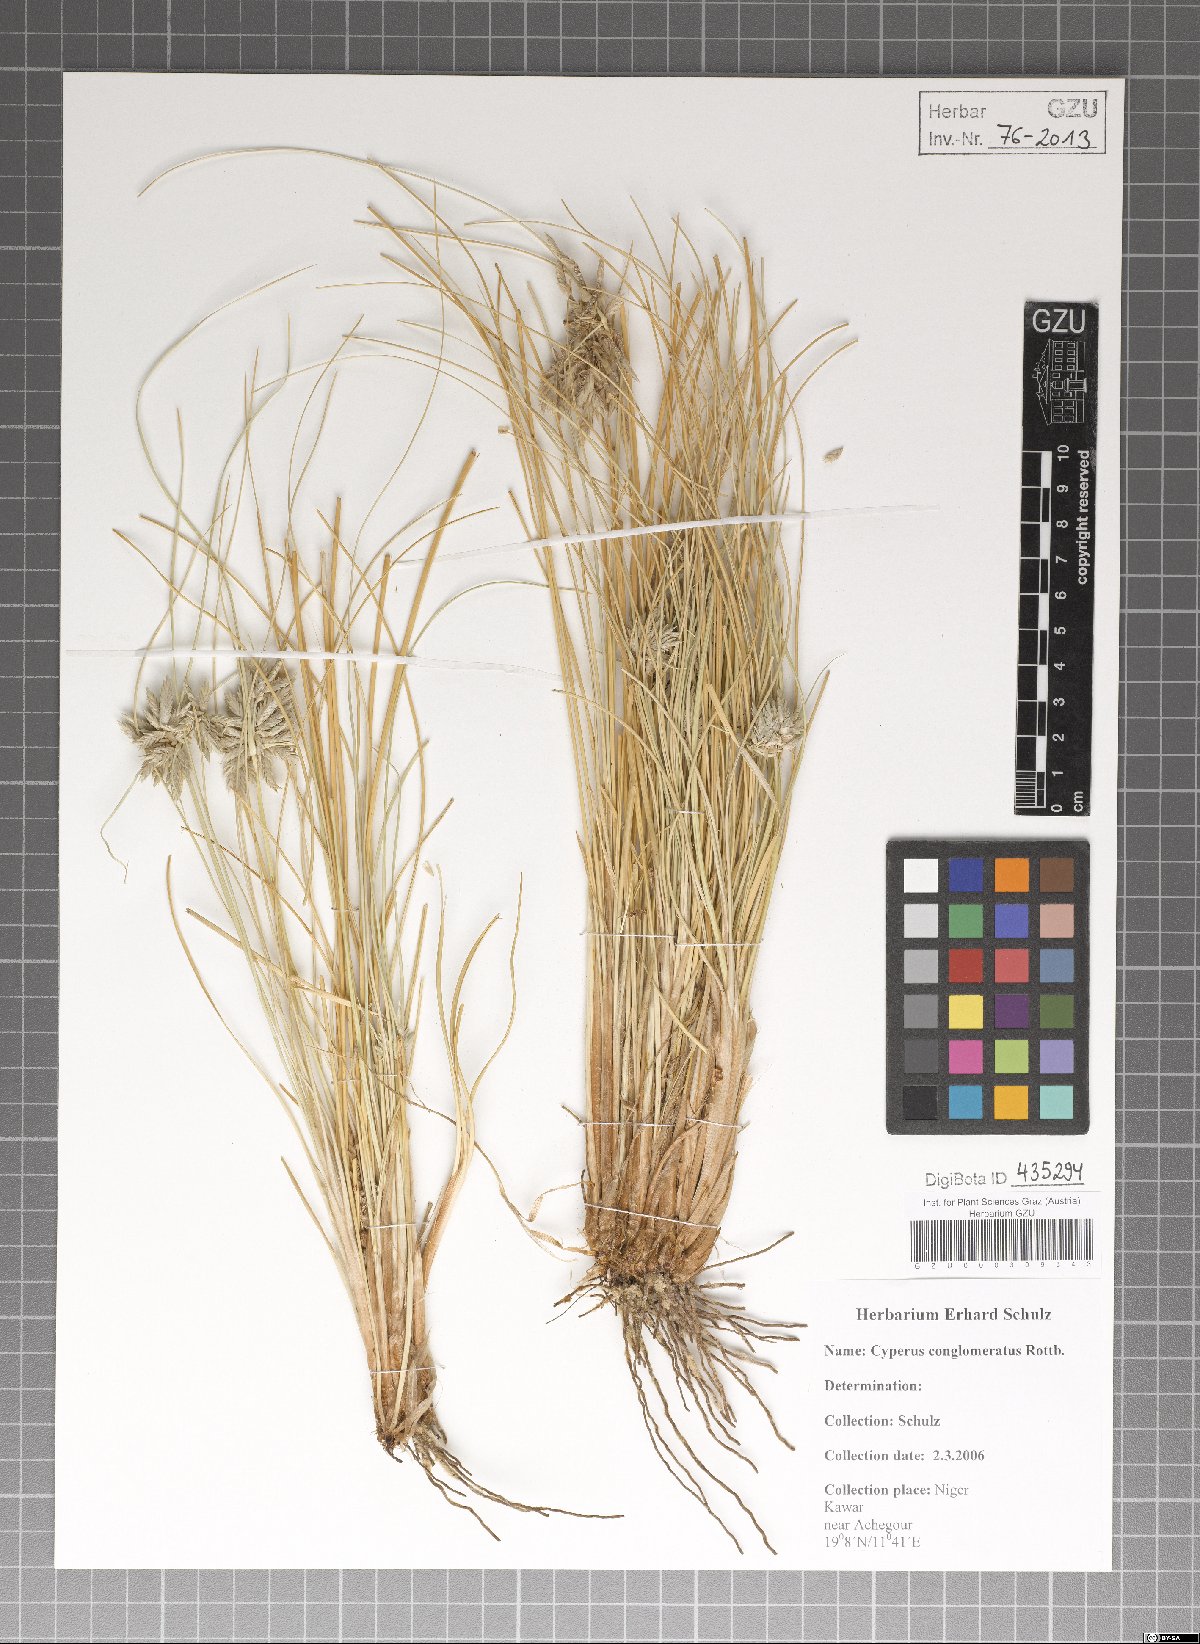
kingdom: Plantae
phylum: Tracheophyta
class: Liliopsida
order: Poales
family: Cyperaceae
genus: Cyperus
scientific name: Cyperus conglomeratus
